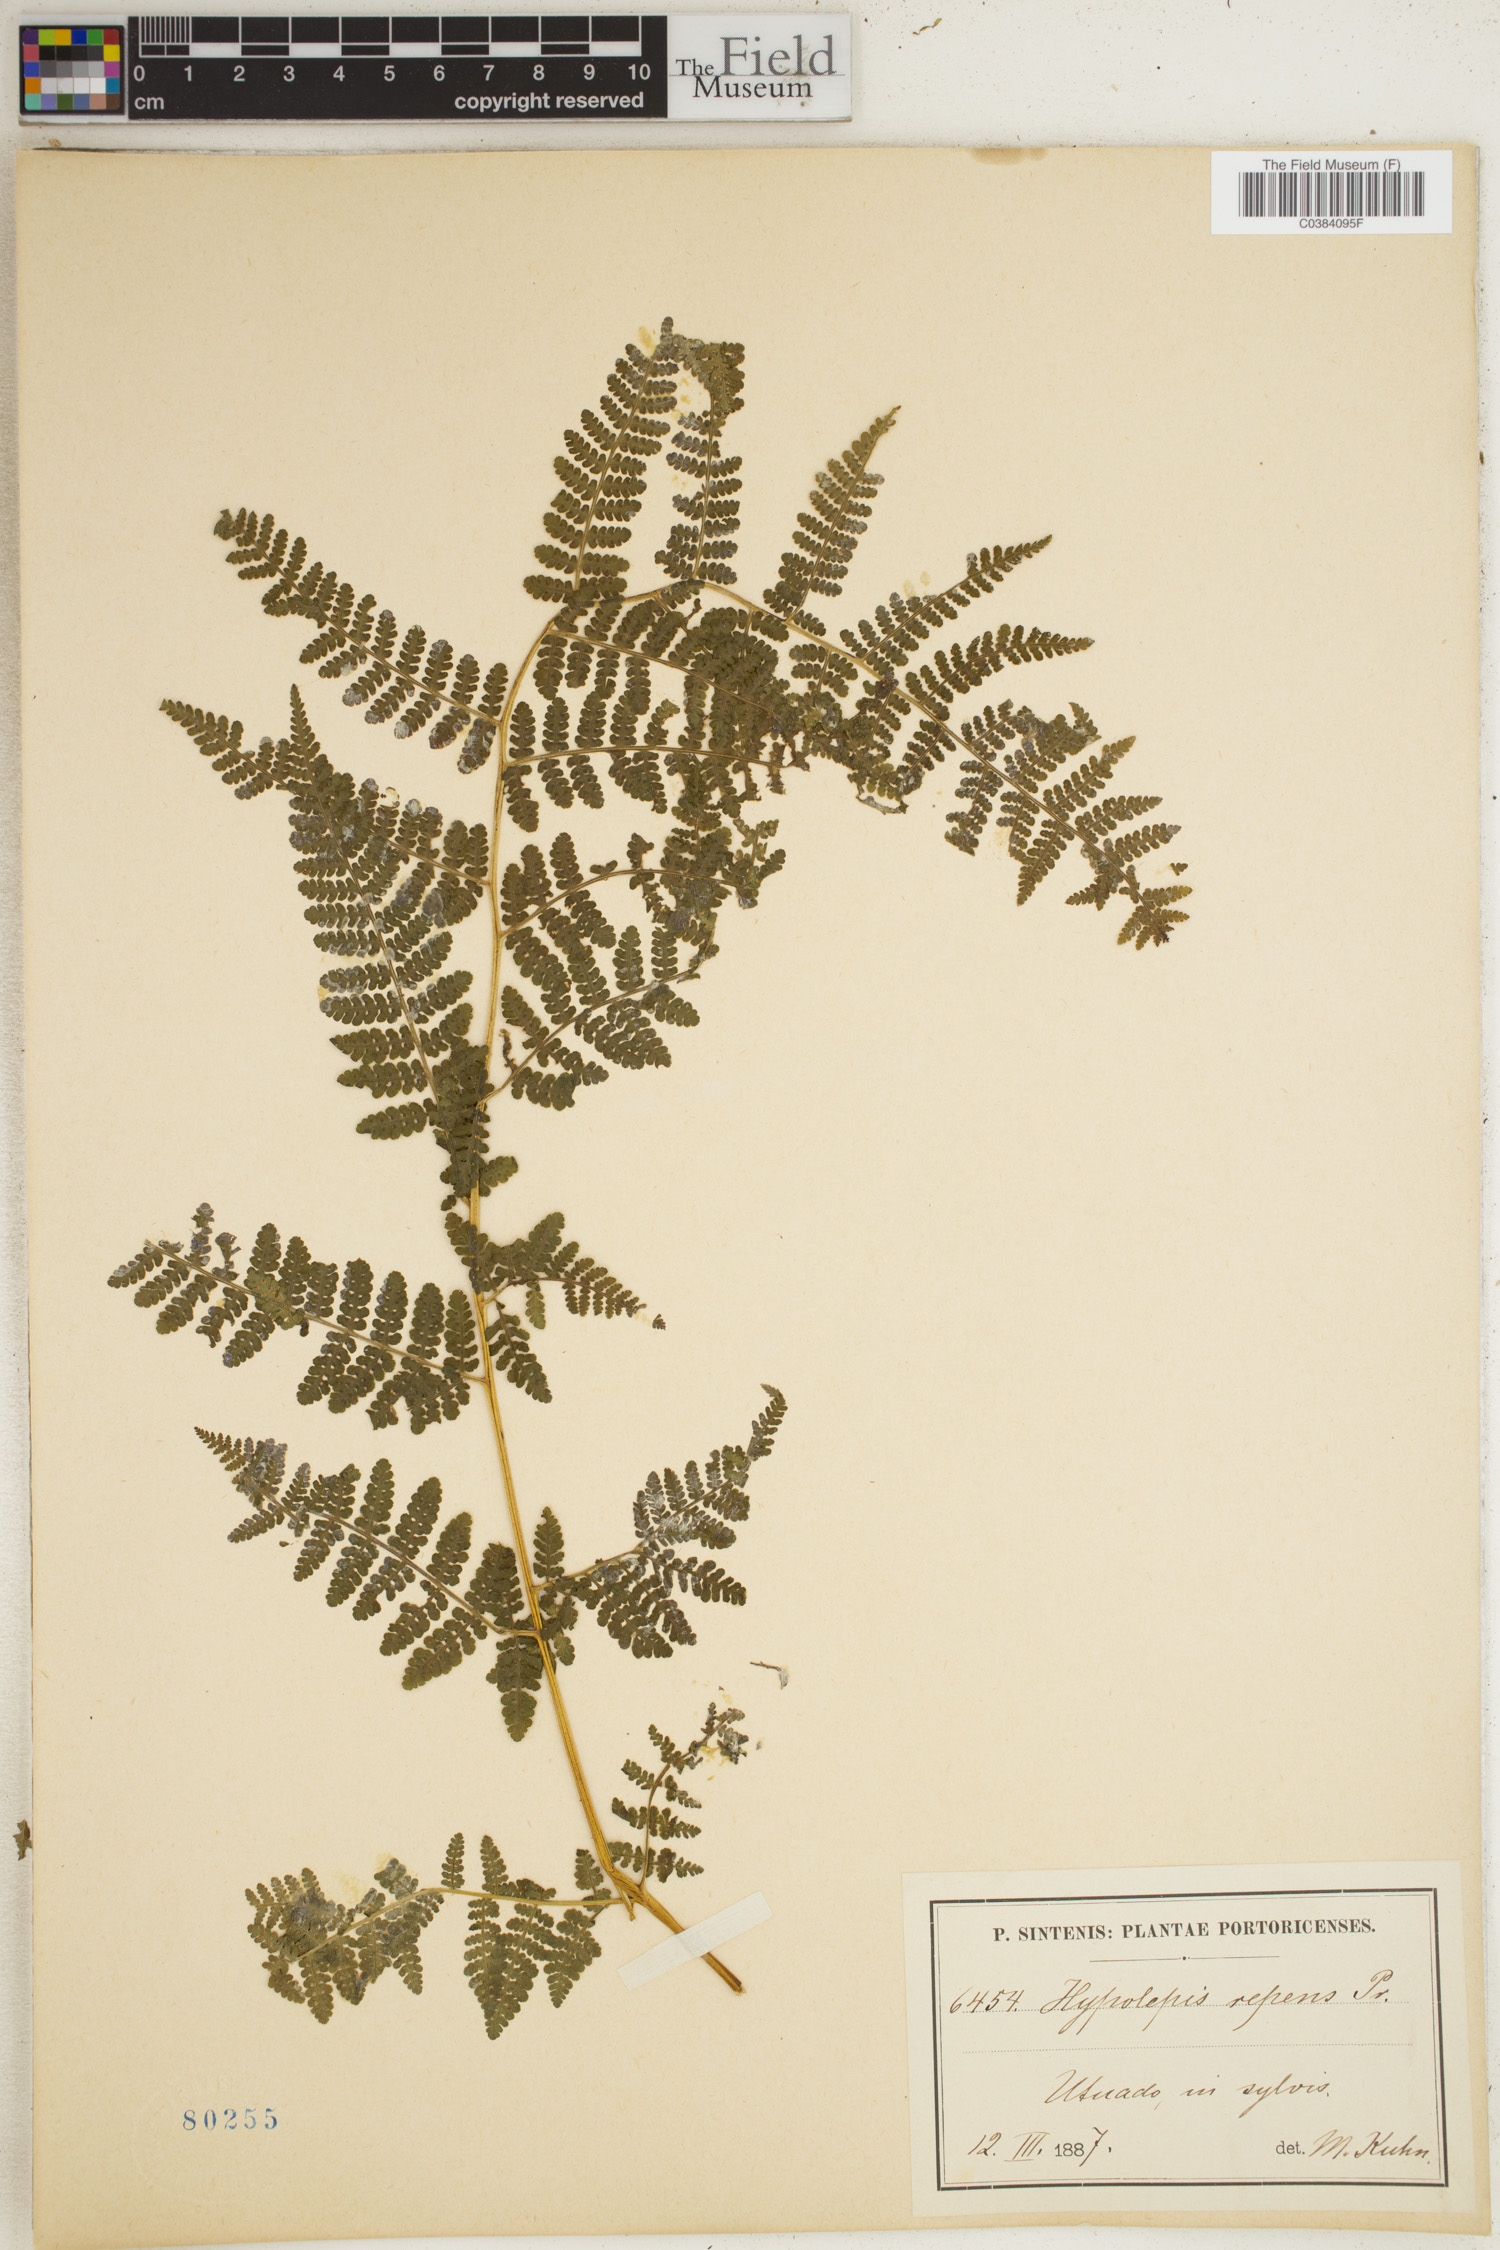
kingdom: Plantae
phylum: Tracheophyta
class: Polypodiopsida
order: Polypodiales
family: Dennstaedtiaceae
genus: Hypolepis
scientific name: Hypolepis repens
